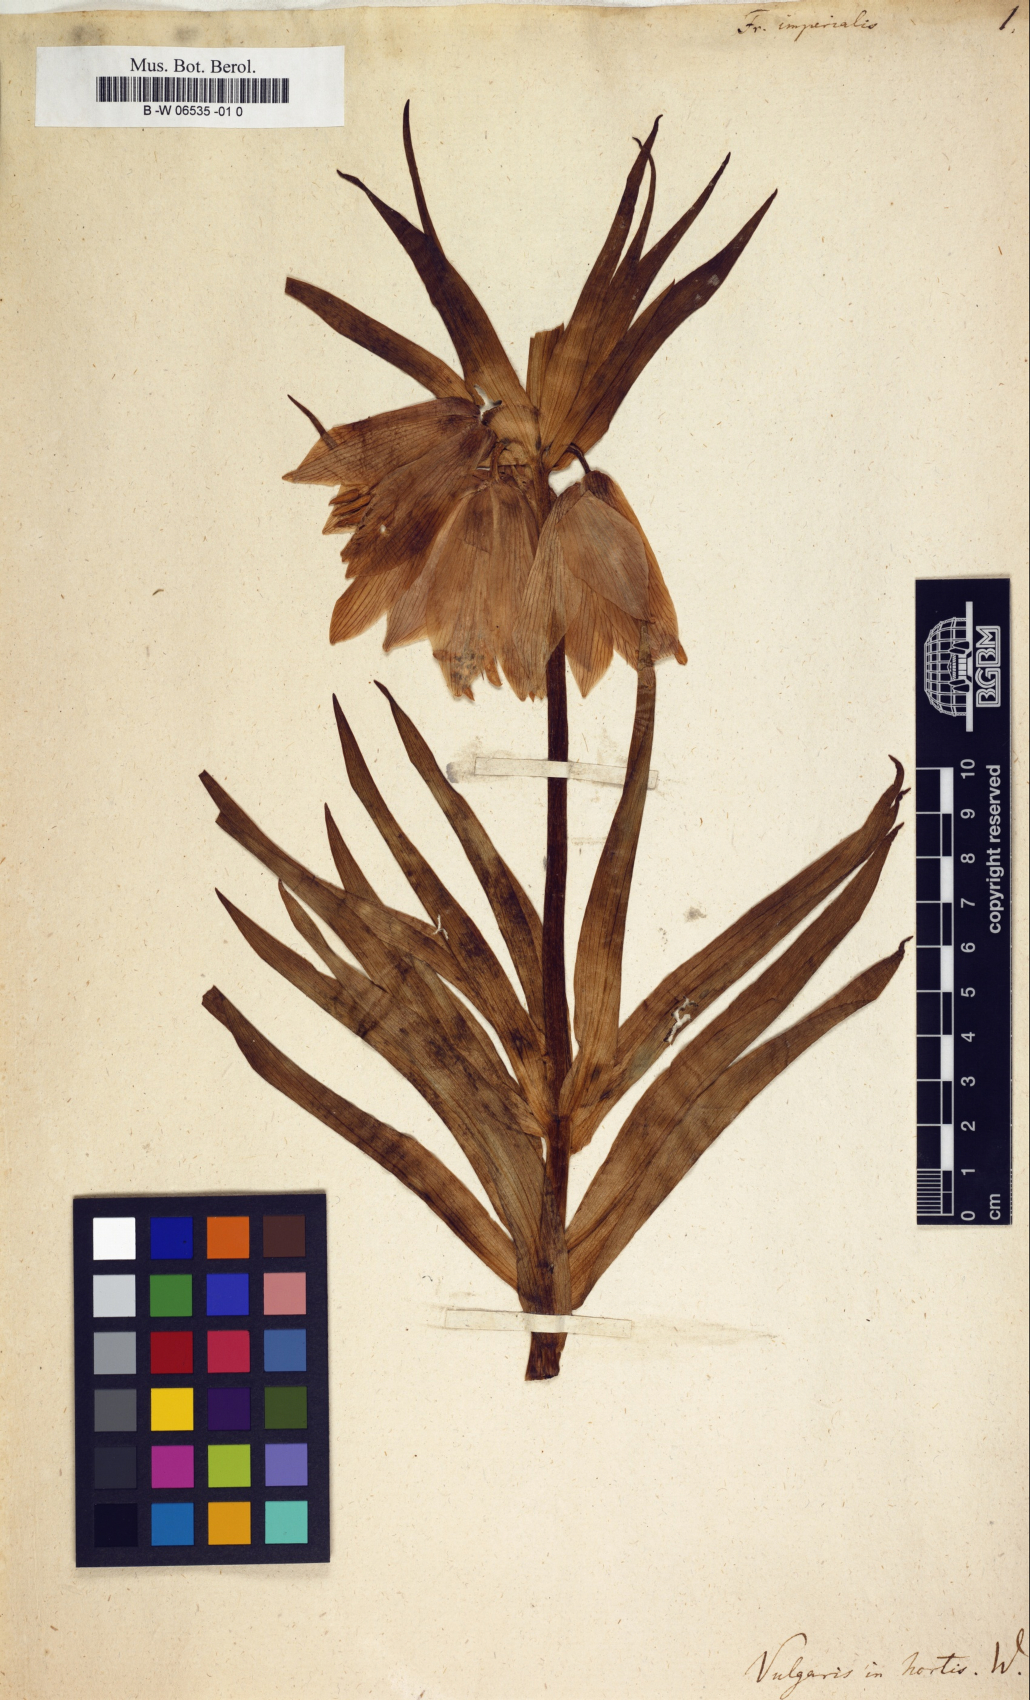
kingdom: Plantae
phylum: Tracheophyta
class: Liliopsida
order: Liliales
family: Liliaceae
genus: Fritillaria
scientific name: Fritillaria imperialis
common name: Imperial fritillary
